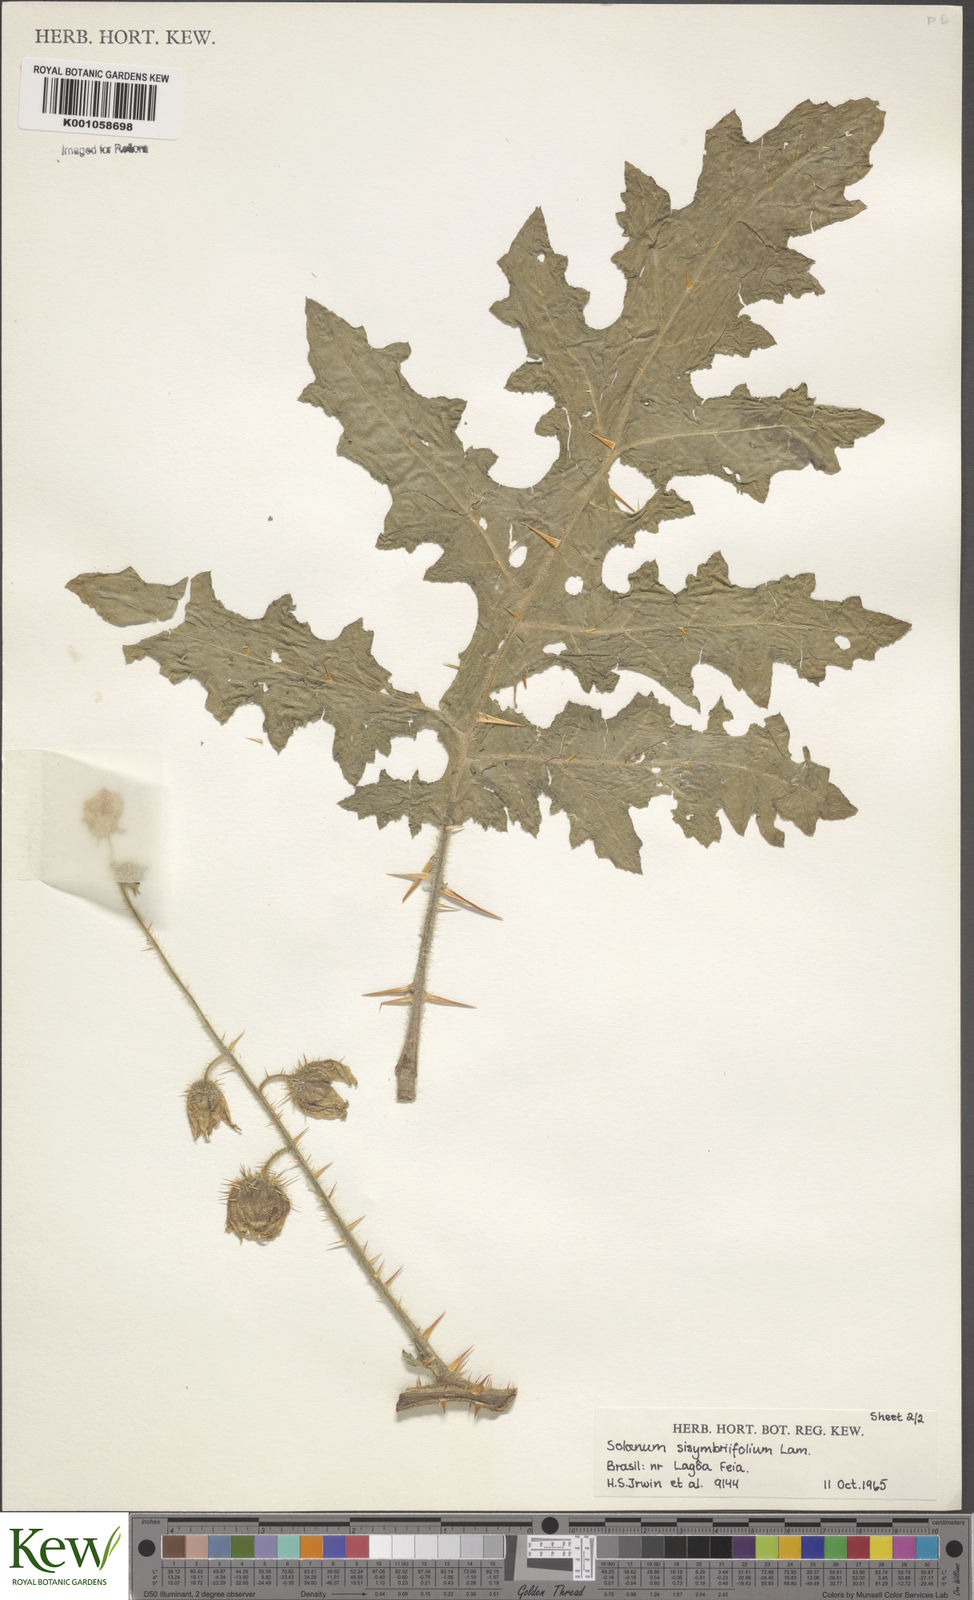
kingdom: Plantae
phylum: Tracheophyta
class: Magnoliopsida
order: Solanales
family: Solanaceae
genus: Solanum
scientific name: Solanum sisymbriifolium
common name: Red buffalo-bur
